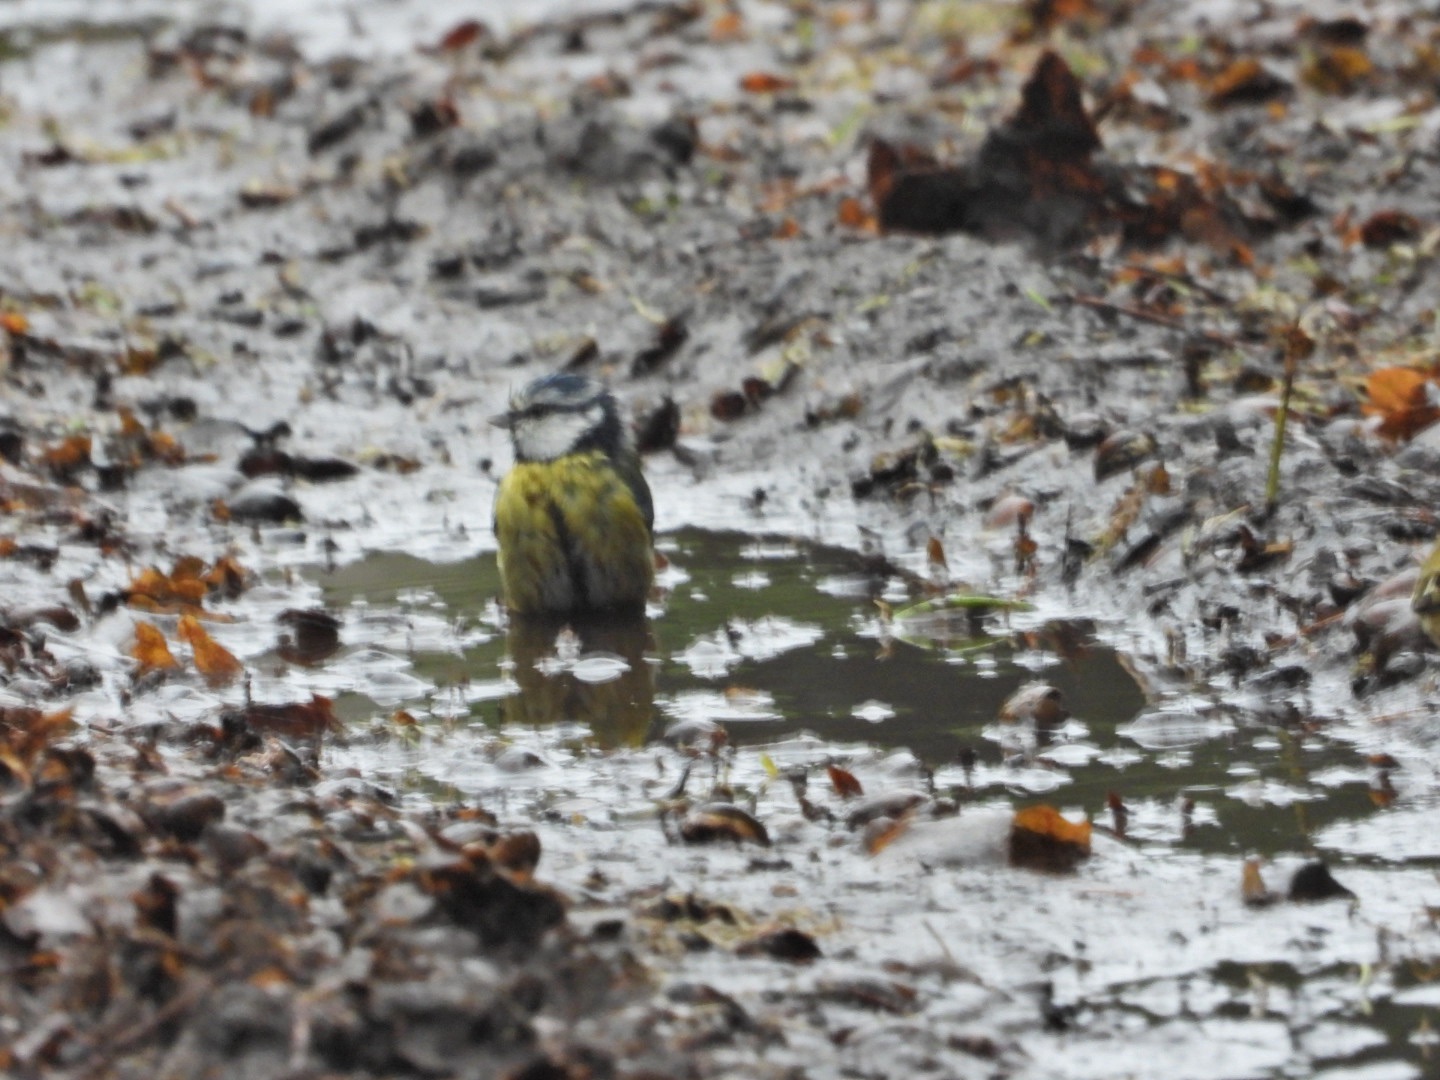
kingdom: Animalia
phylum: Chordata
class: Aves
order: Passeriformes
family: Paridae
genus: Cyanistes
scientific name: Cyanistes caeruleus
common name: Blåmejse
